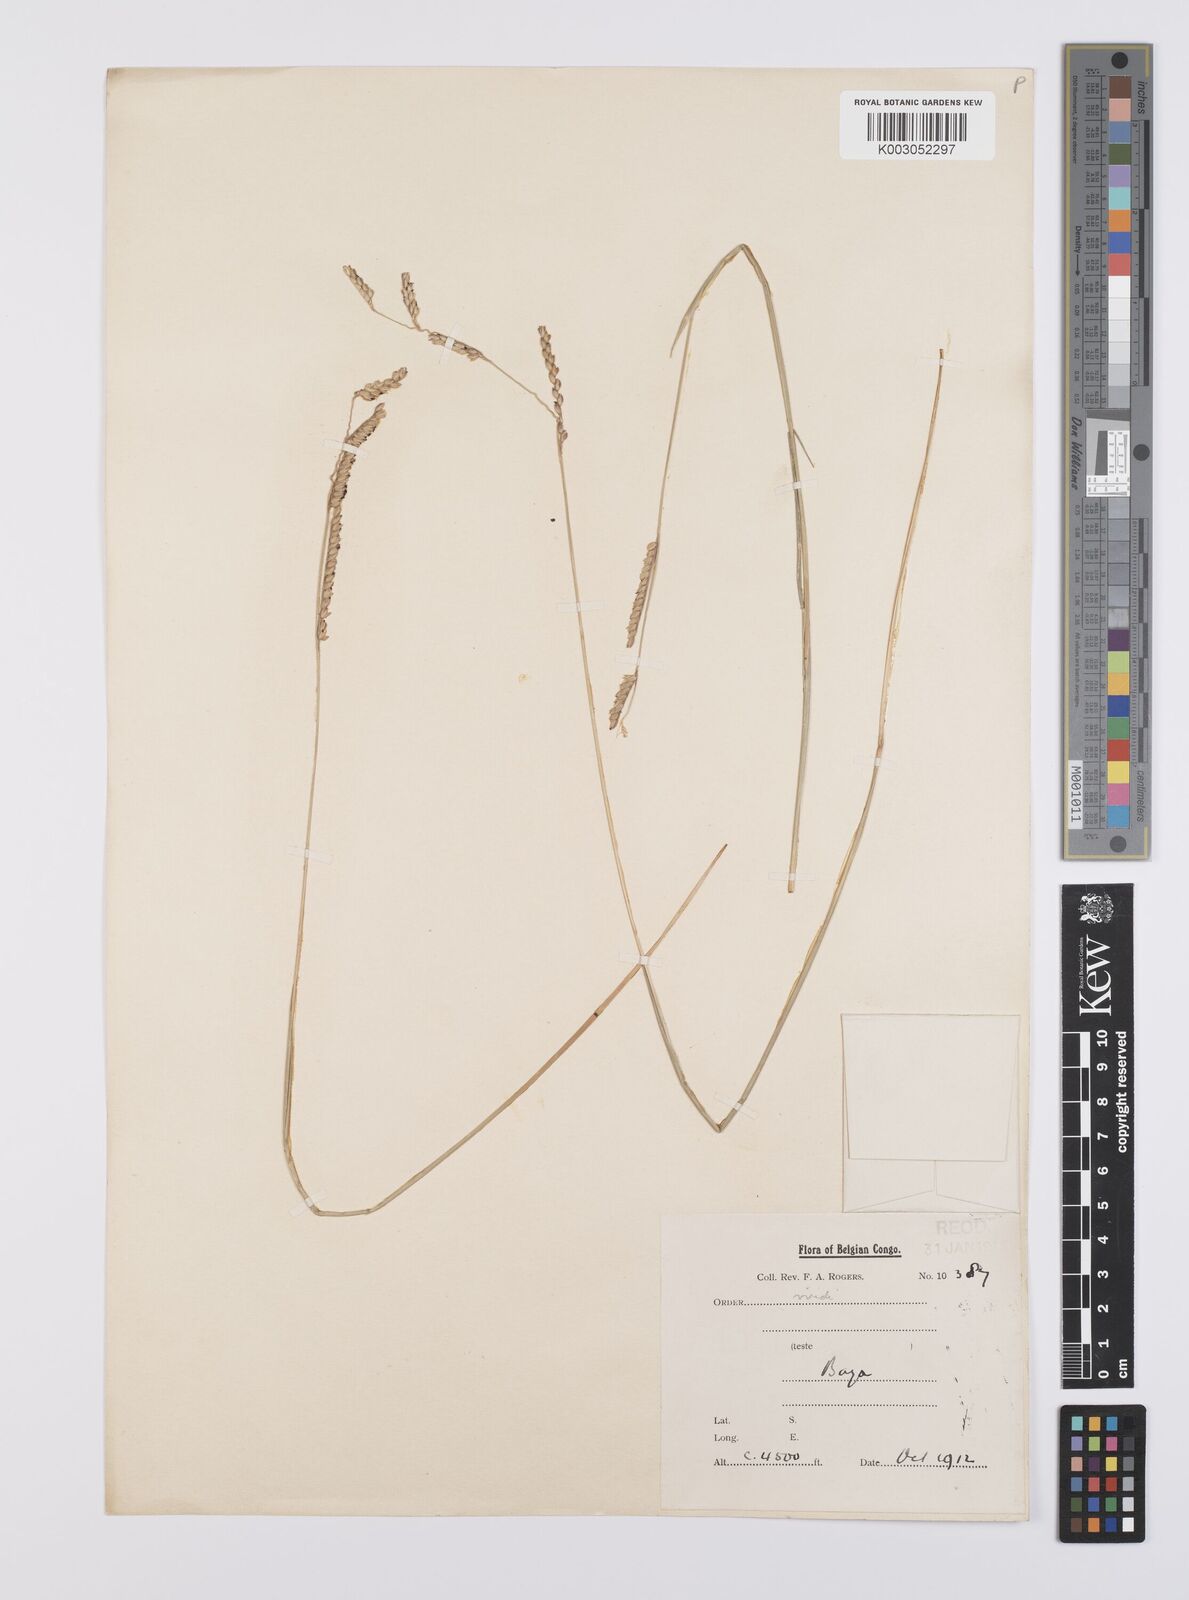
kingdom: Plantae
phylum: Tracheophyta
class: Liliopsida
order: Poales
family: Poaceae
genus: Urochloa
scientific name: Urochloa bovonei
